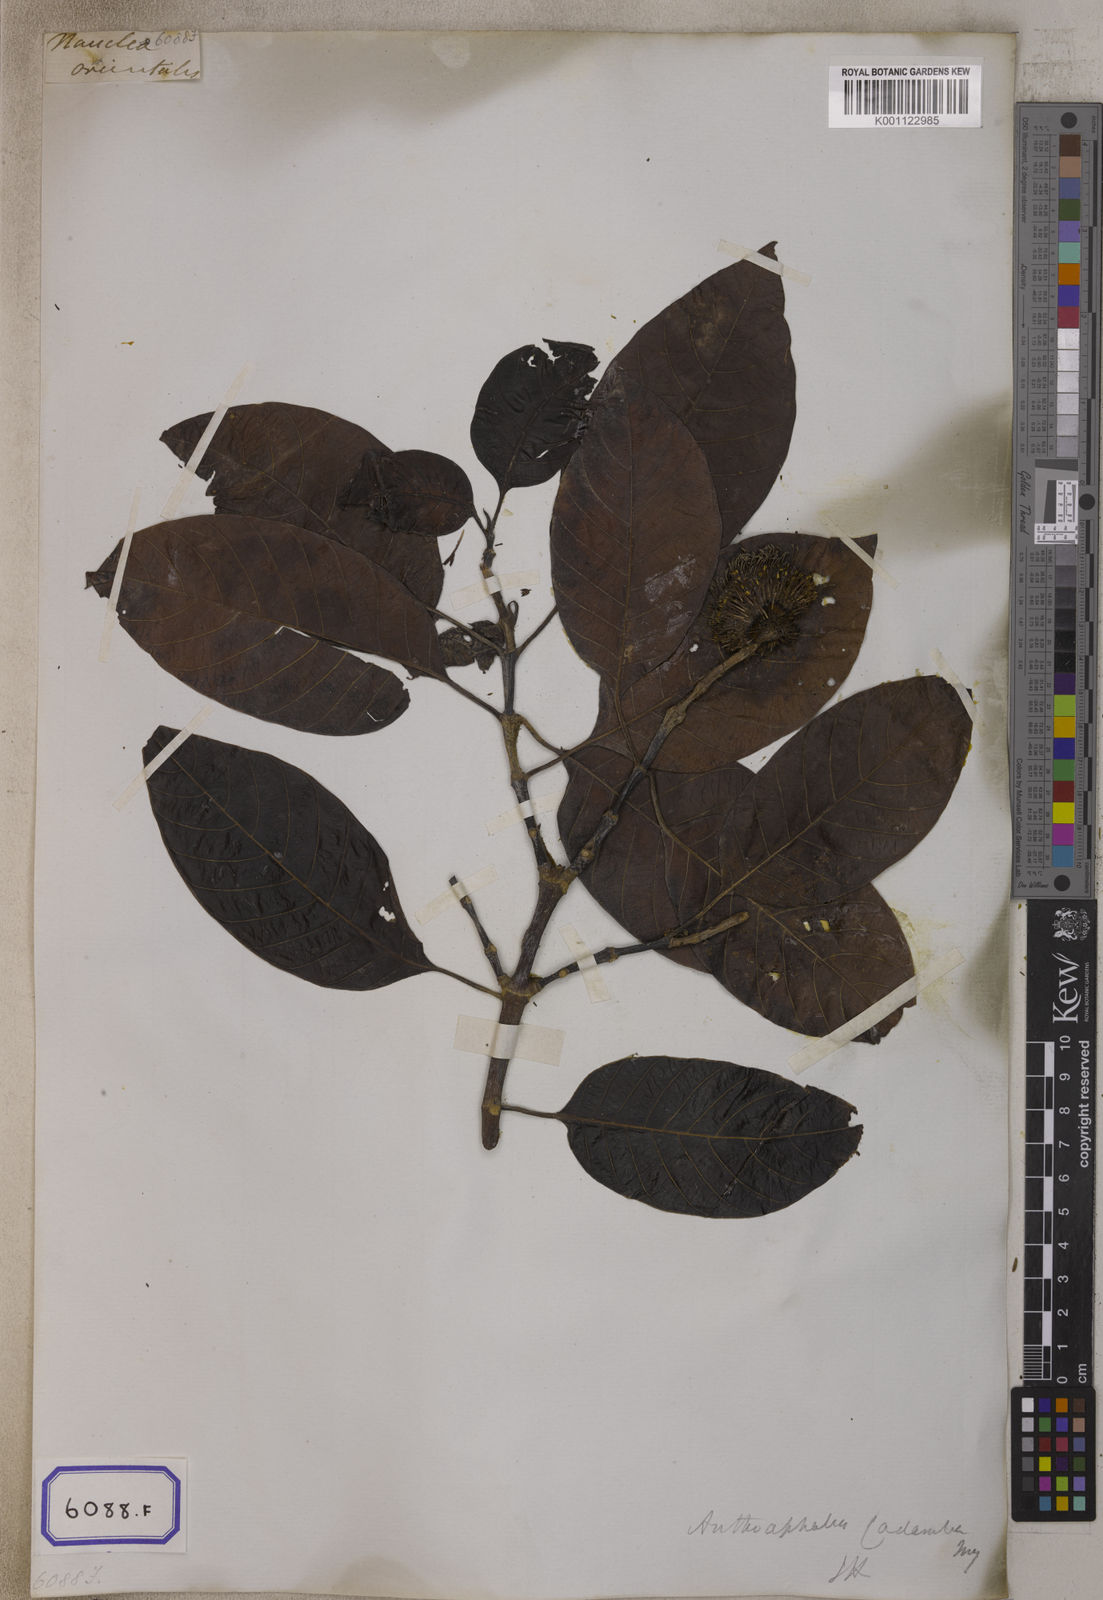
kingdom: Plantae
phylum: Tracheophyta
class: Magnoliopsida
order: Gentianales
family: Rubiaceae
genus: Neolamarckia
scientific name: Neolamarckia cadamba
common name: Leichhardt-pine
